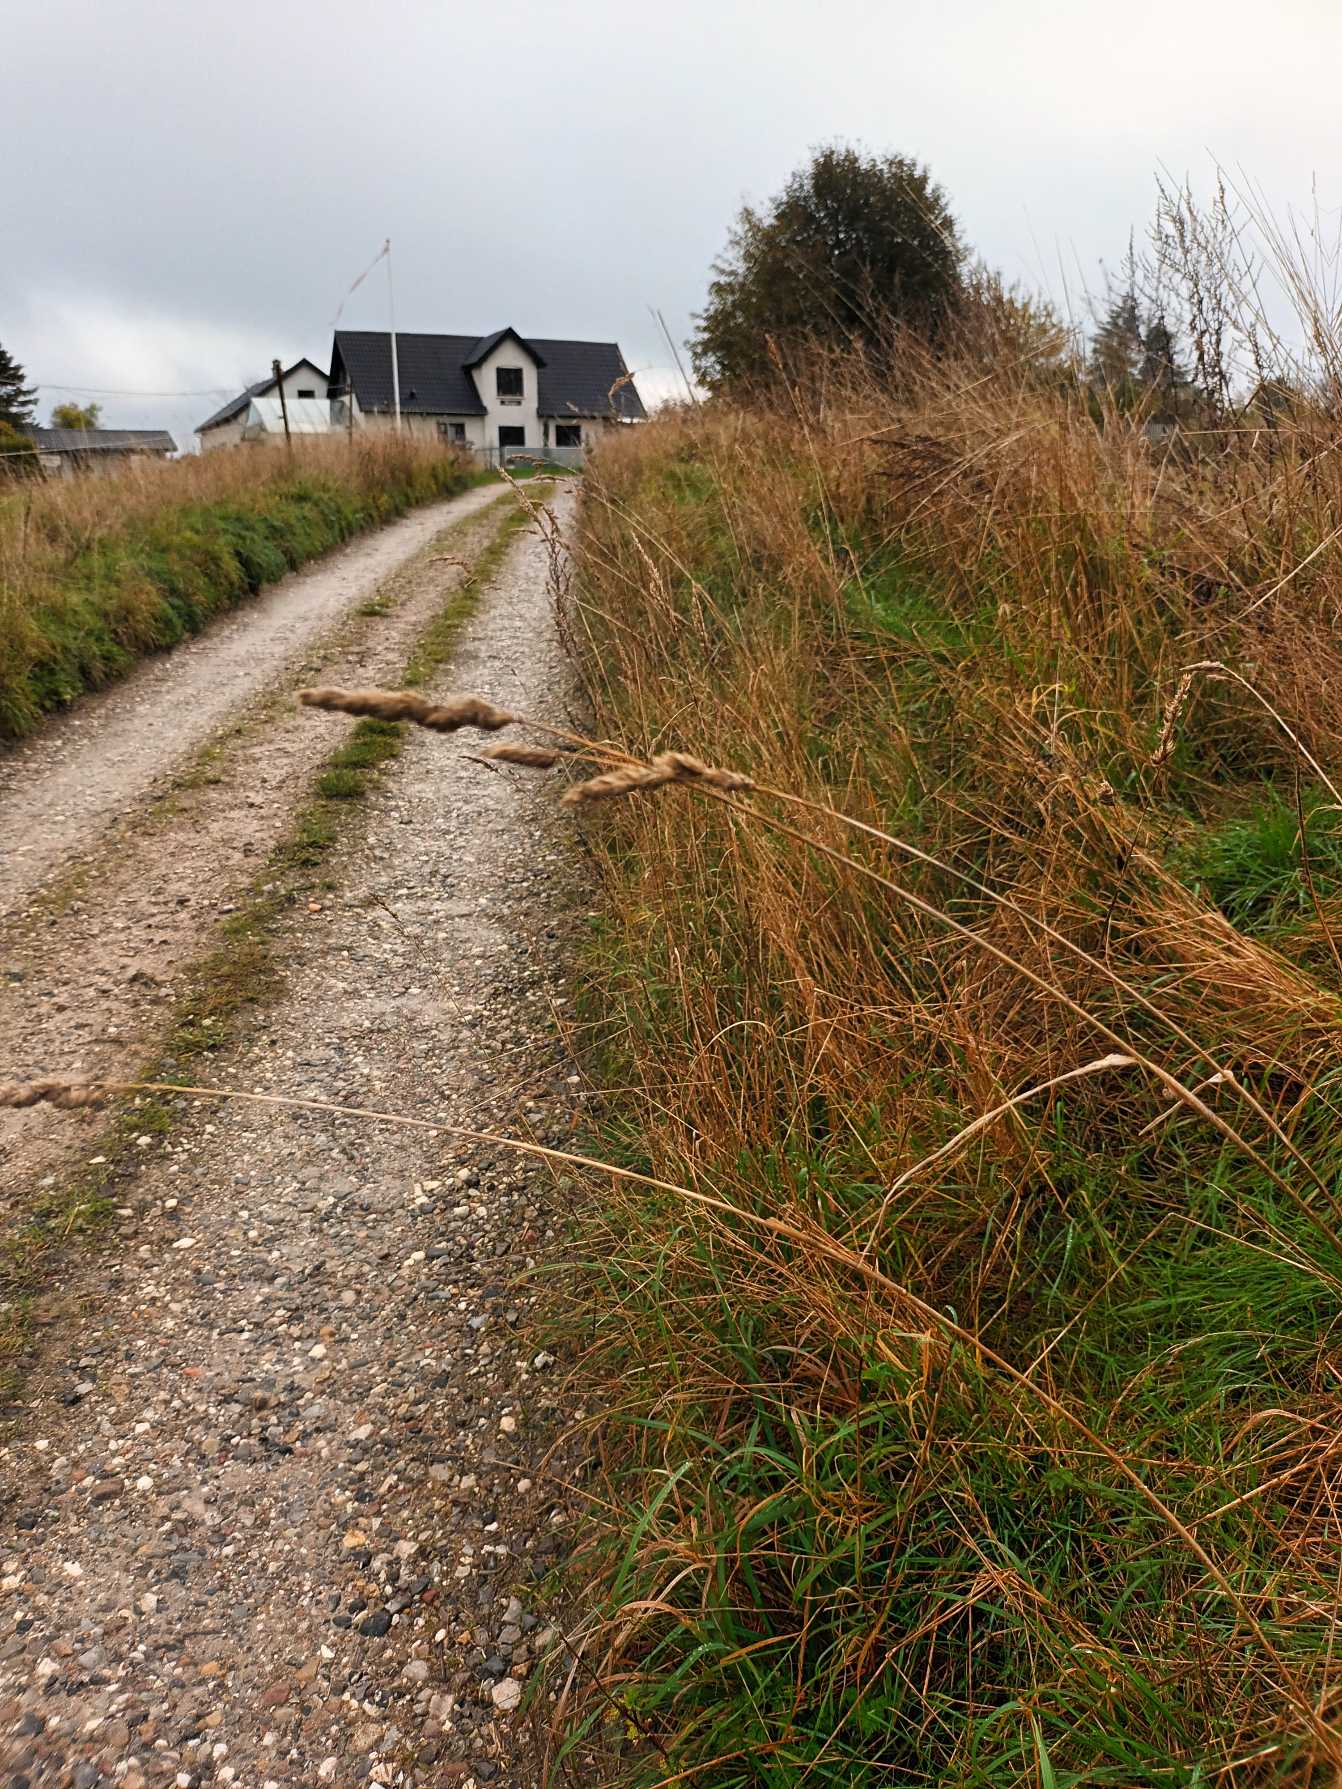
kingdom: Plantae
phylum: Tracheophyta
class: Liliopsida
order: Poales
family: Poaceae
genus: Dactylis
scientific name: Dactylis glomerata
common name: Almindelig hundegræs
